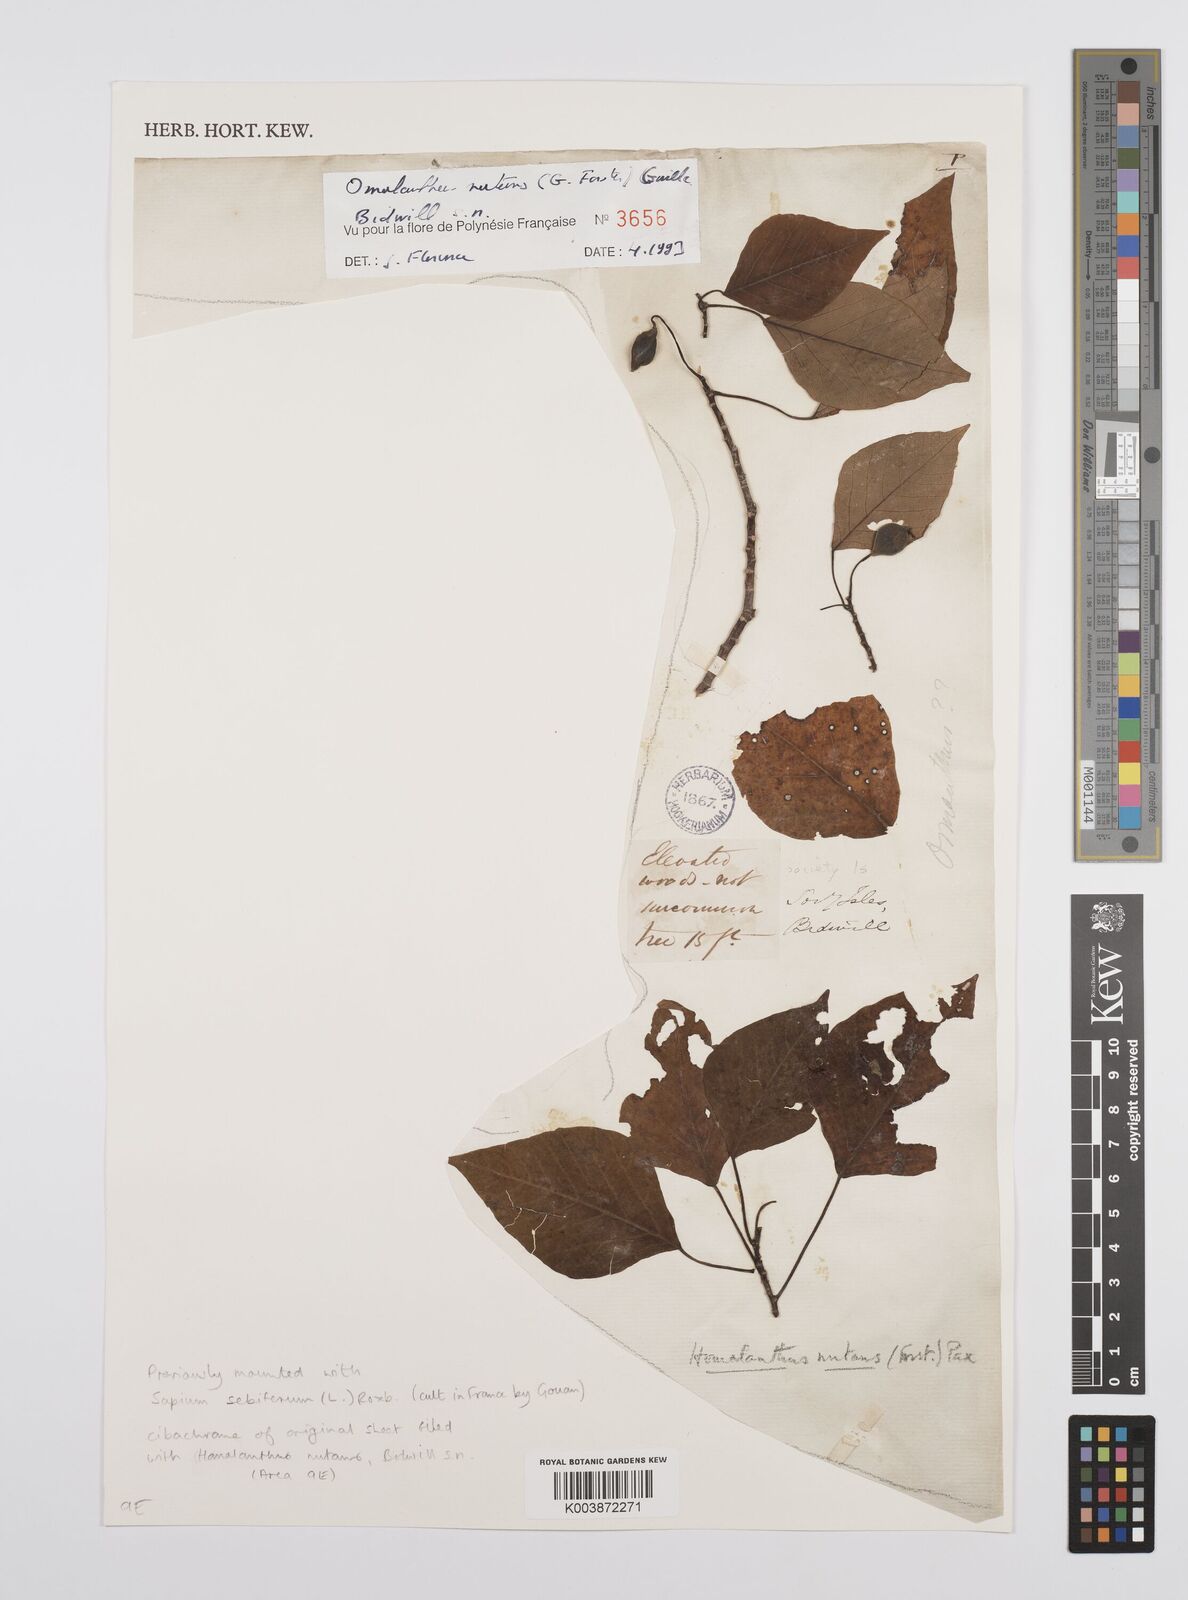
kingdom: Plantae
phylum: Tracheophyta
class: Magnoliopsida
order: Malpighiales
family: Euphorbiaceae
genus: Homalanthus
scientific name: Homalanthus nutans
